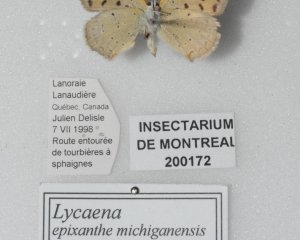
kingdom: Animalia
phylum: Arthropoda
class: Insecta
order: Lepidoptera
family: Sesiidae
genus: Sesia
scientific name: Sesia Lycaena epixanthe
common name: Bog Copper
